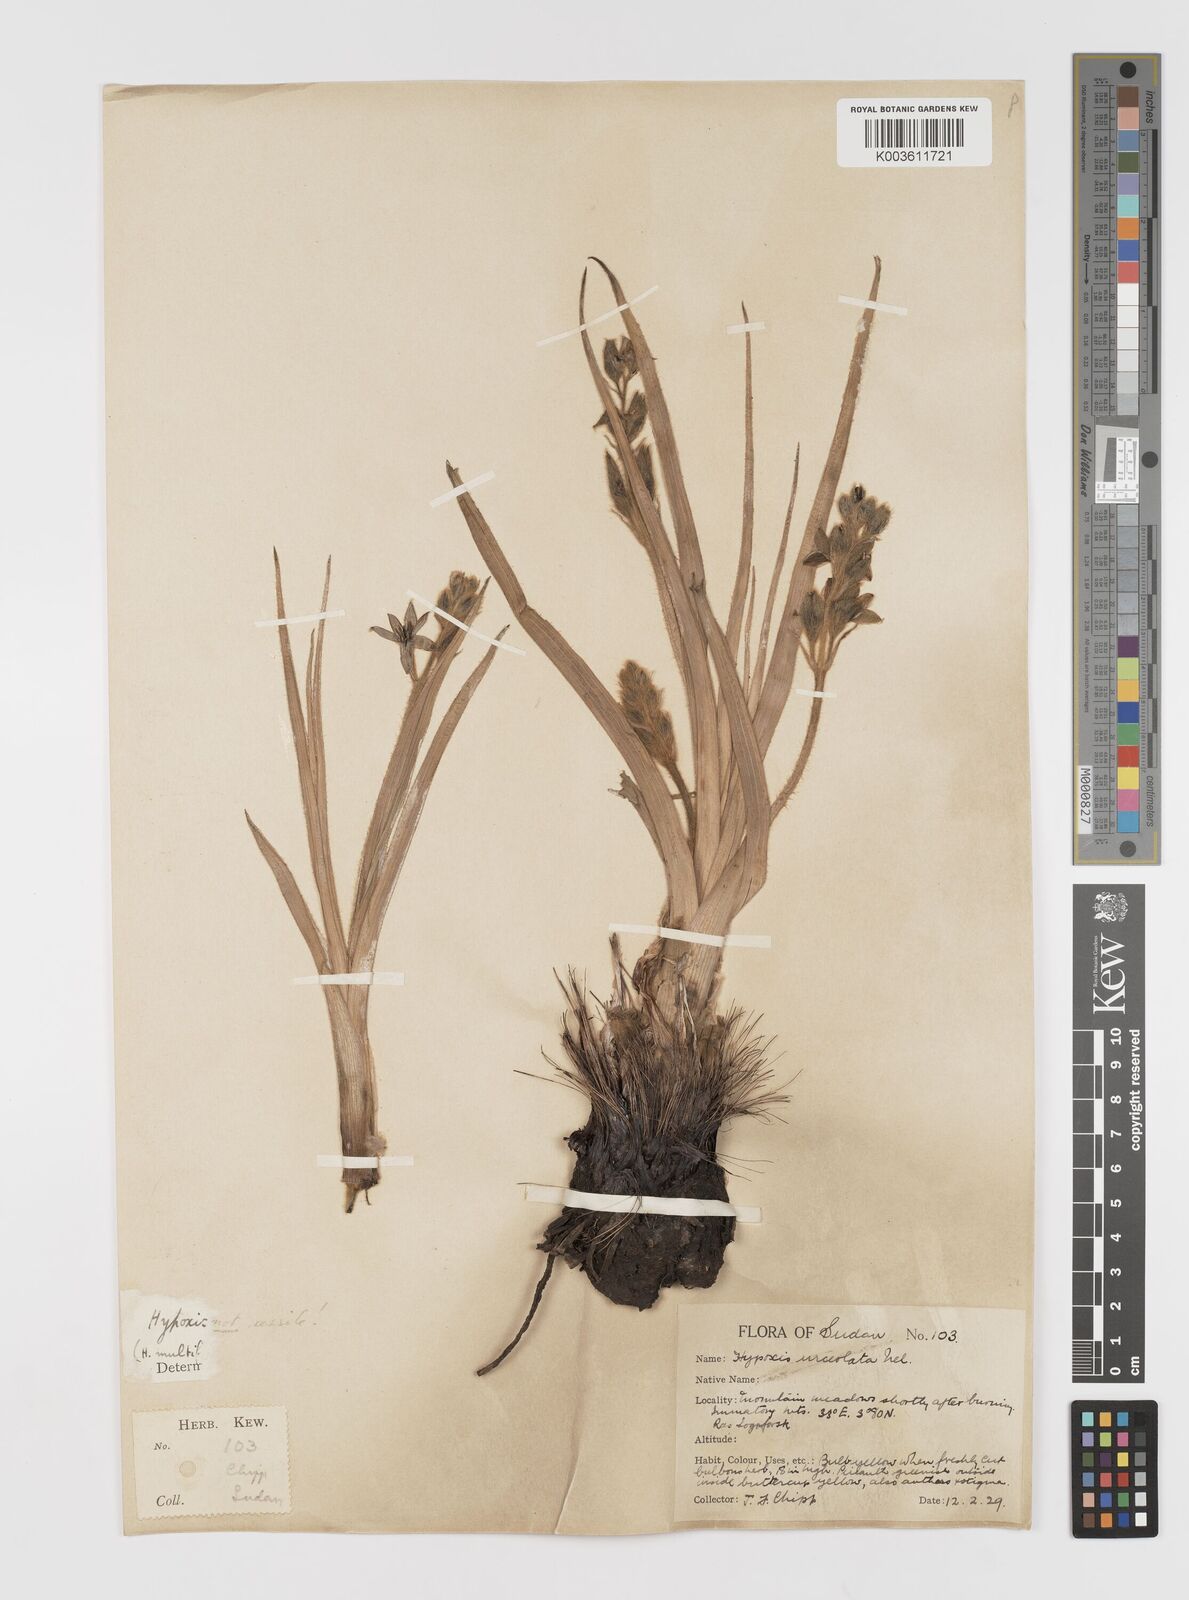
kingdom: Plantae
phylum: Tracheophyta
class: Liliopsida
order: Asparagales
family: Hypoxidaceae
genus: Hypoxis
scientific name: Hypoxis urceolata
